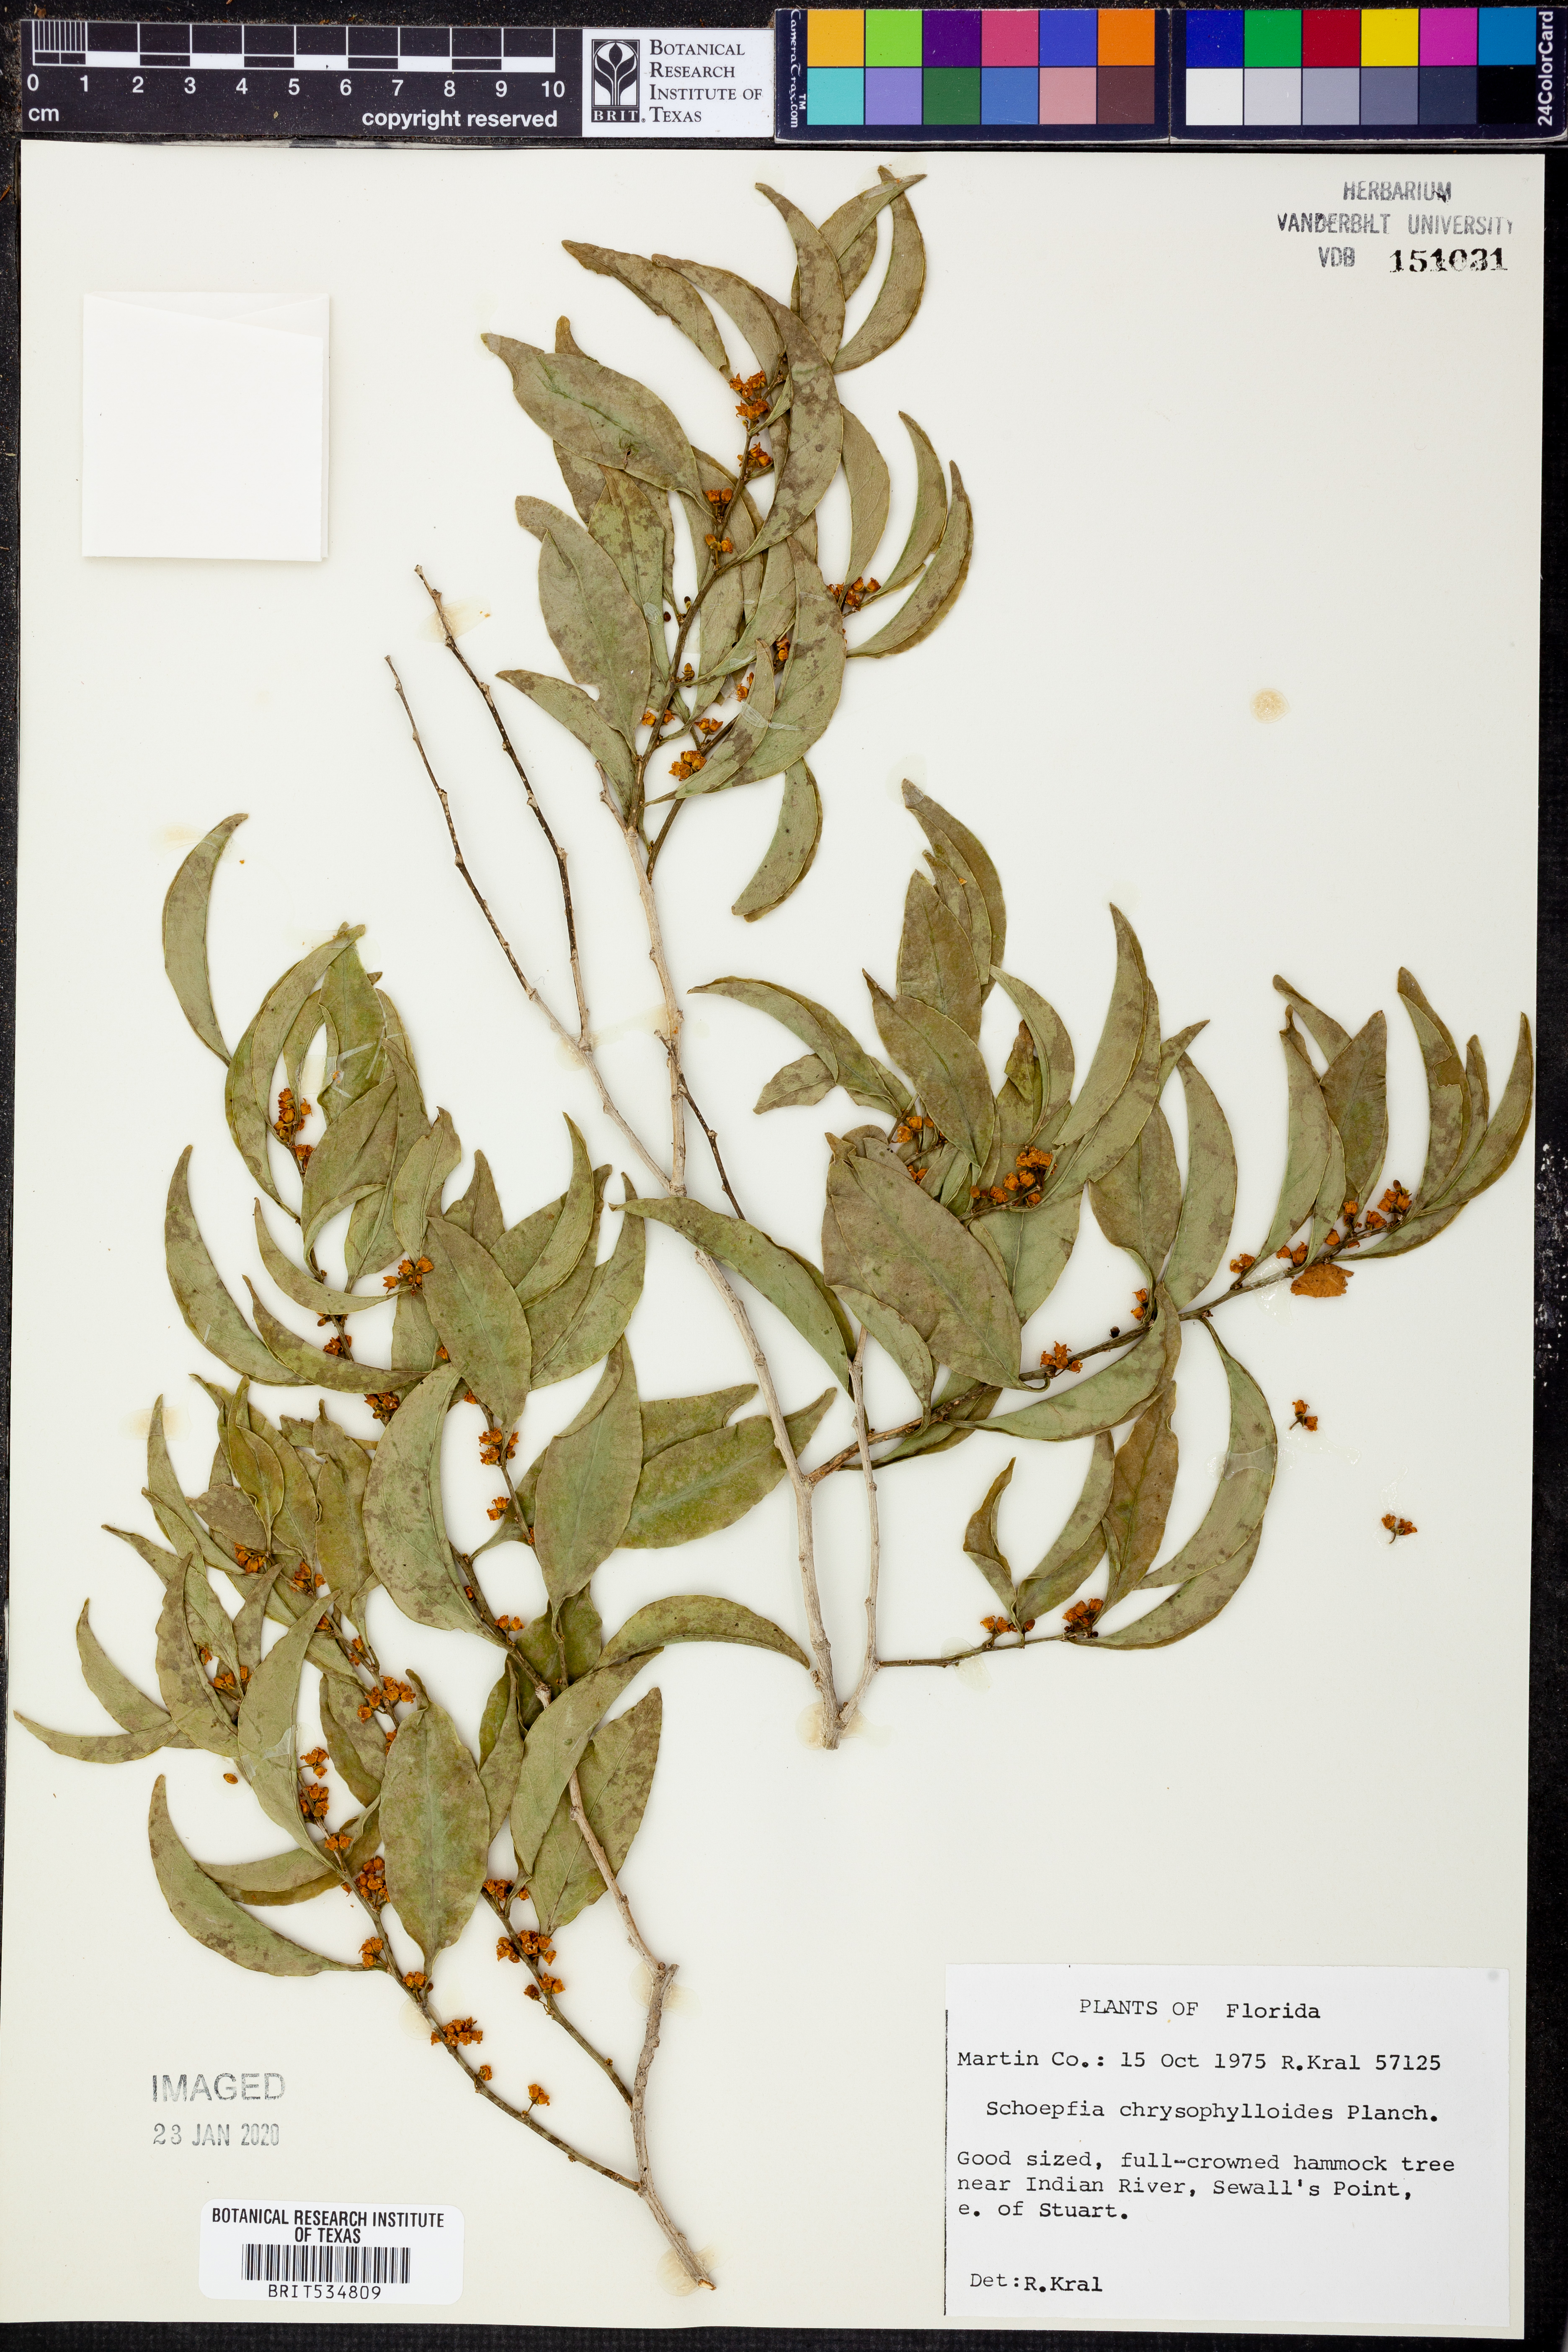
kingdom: Plantae
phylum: Tracheophyta
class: Magnoliopsida
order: Santalales
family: Schoepfiaceae
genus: Schoepfia
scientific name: Schoepfia schreberi
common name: Gulf graytwig
